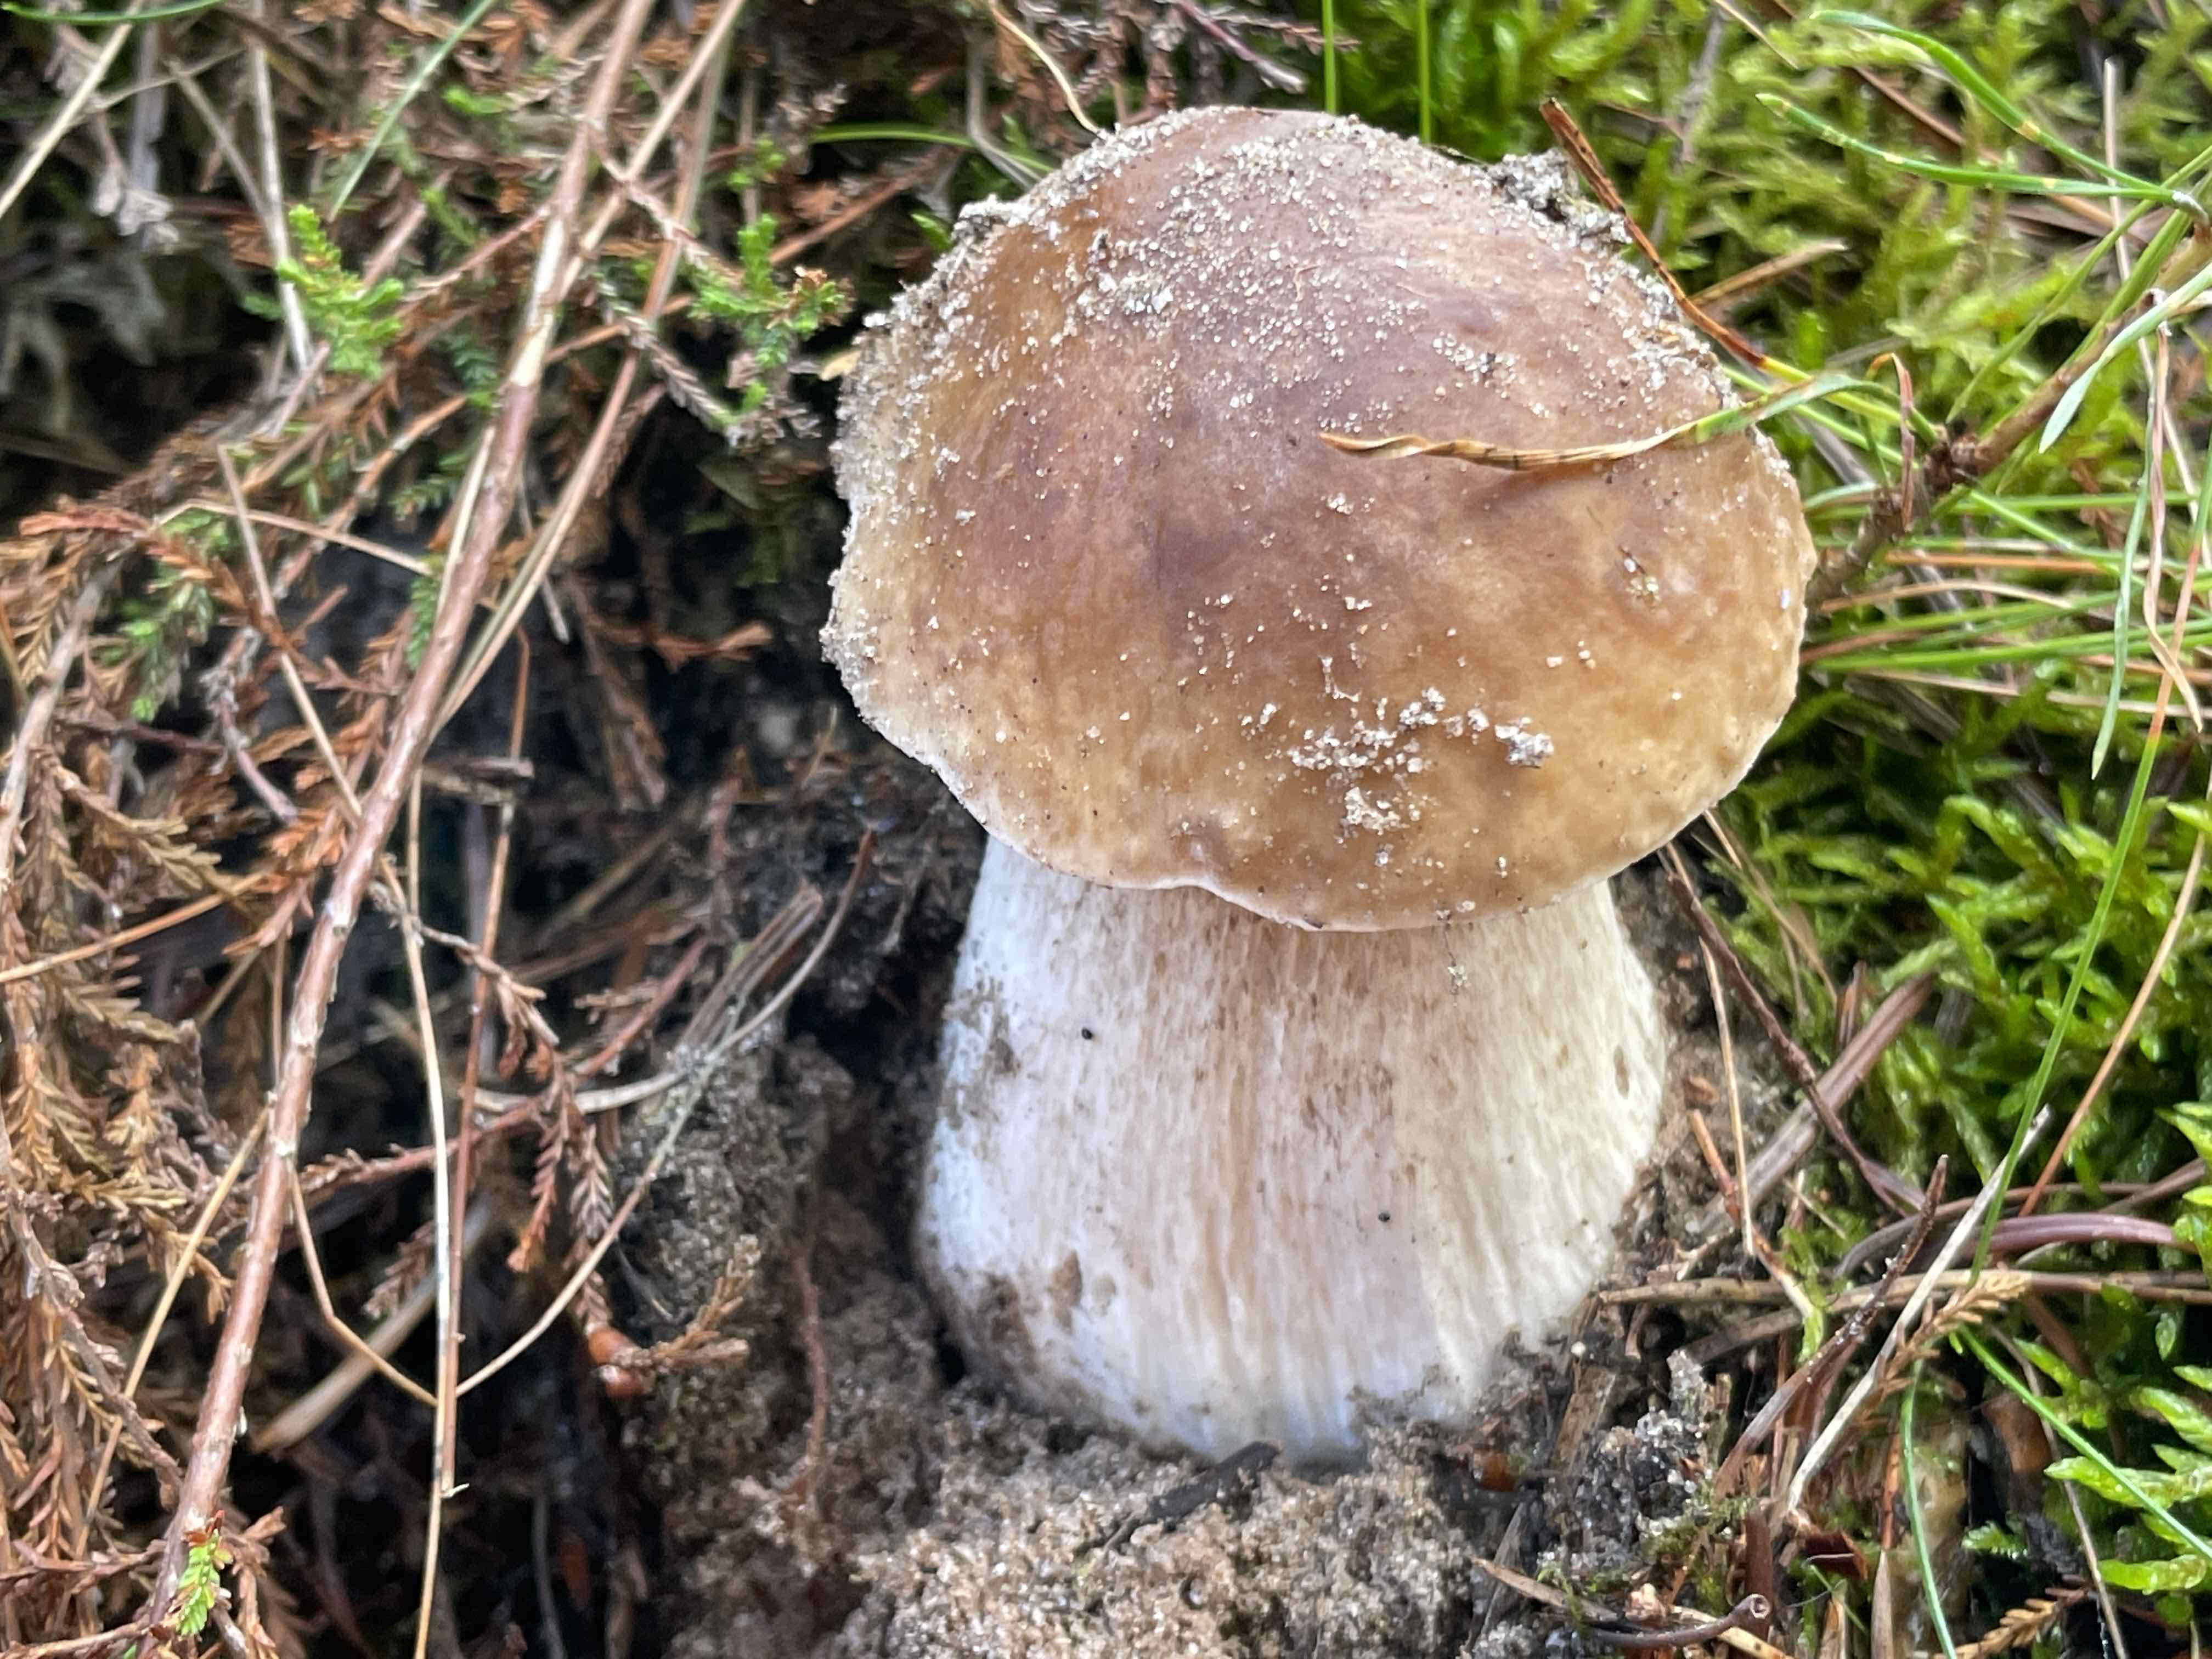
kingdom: Fungi
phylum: Basidiomycota
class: Agaricomycetes
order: Boletales
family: Boletaceae
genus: Boletus
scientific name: Boletus edulis
